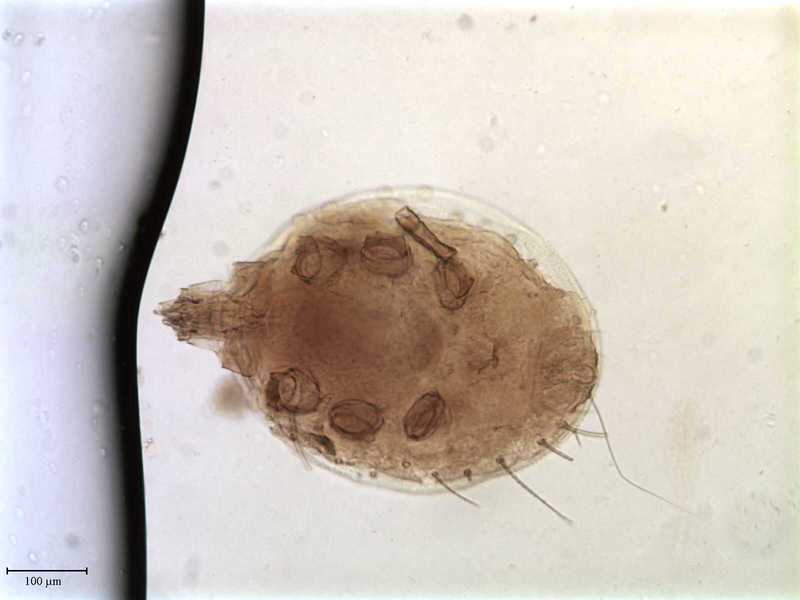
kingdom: Animalia
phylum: Arthropoda
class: Arachnida
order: Mesostigmata
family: Trematuridae
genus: Trichouropoda
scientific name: Trichouropoda vitzthumilongiseta
